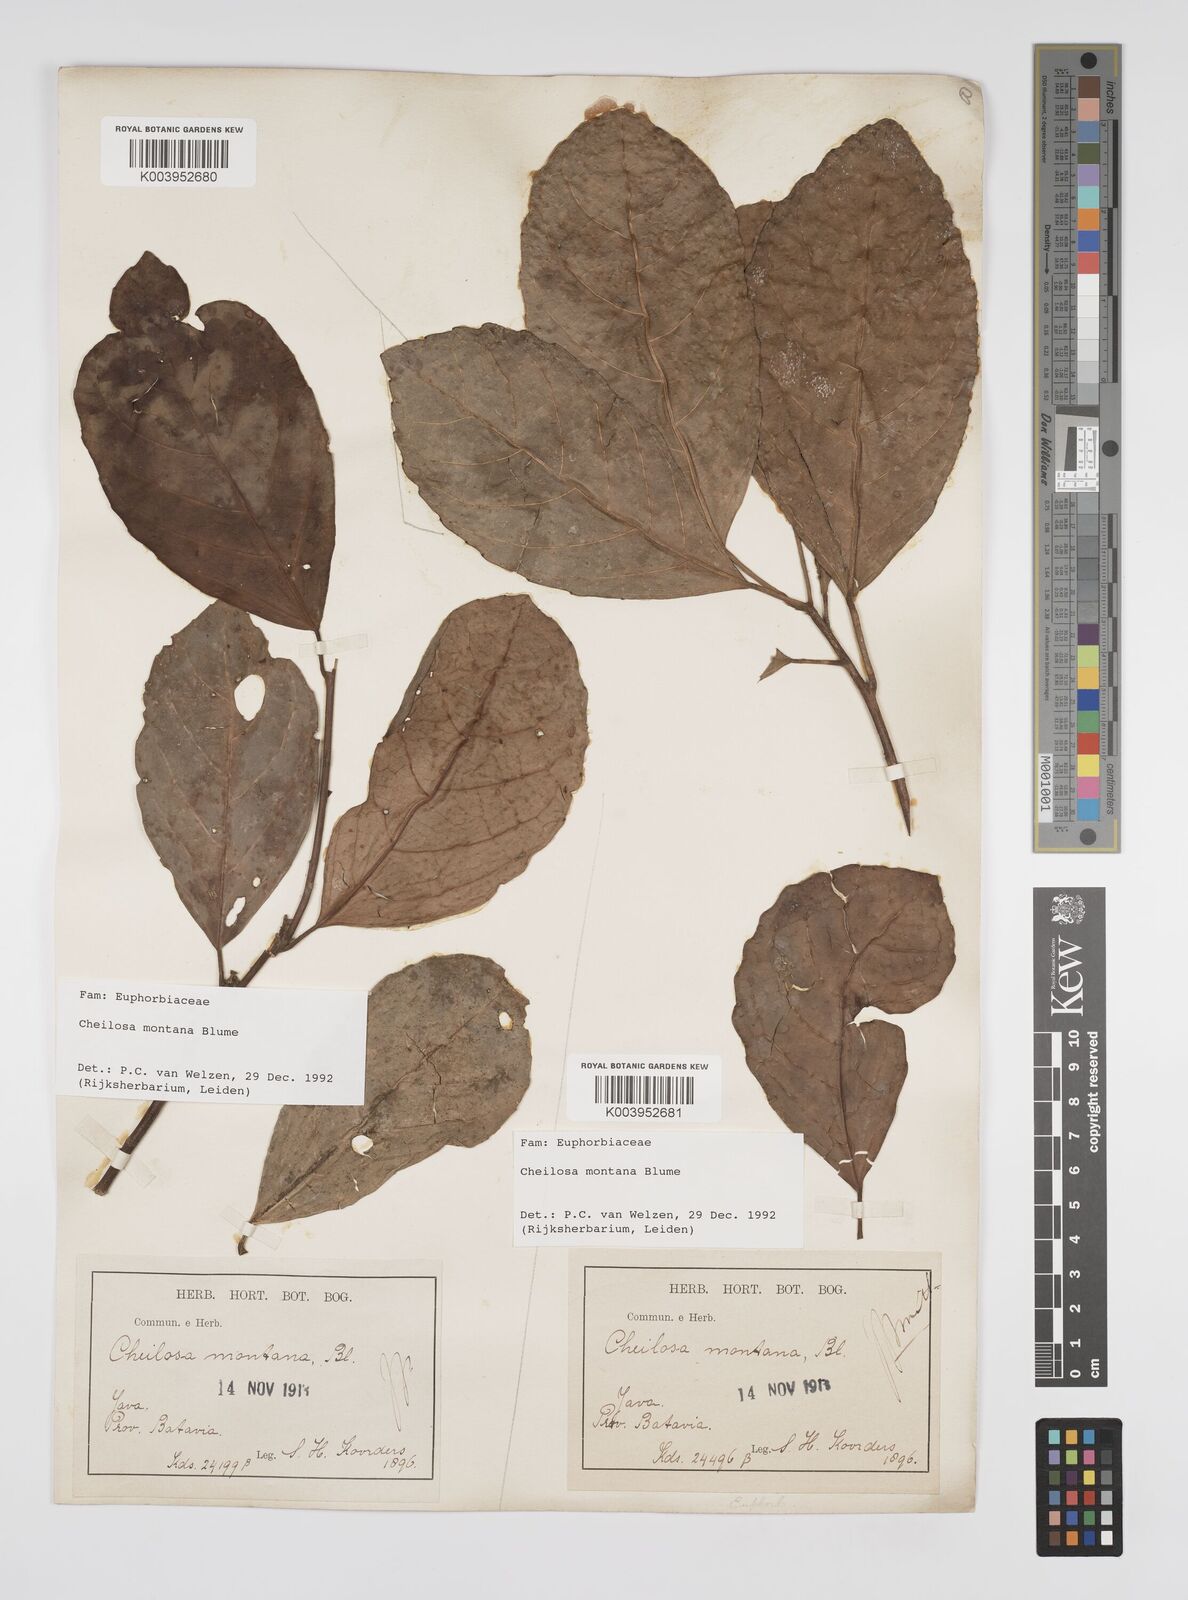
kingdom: Plantae
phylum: Tracheophyta
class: Magnoliopsida
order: Malpighiales
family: Euphorbiaceae
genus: Cheilosa
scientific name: Cheilosa montana
